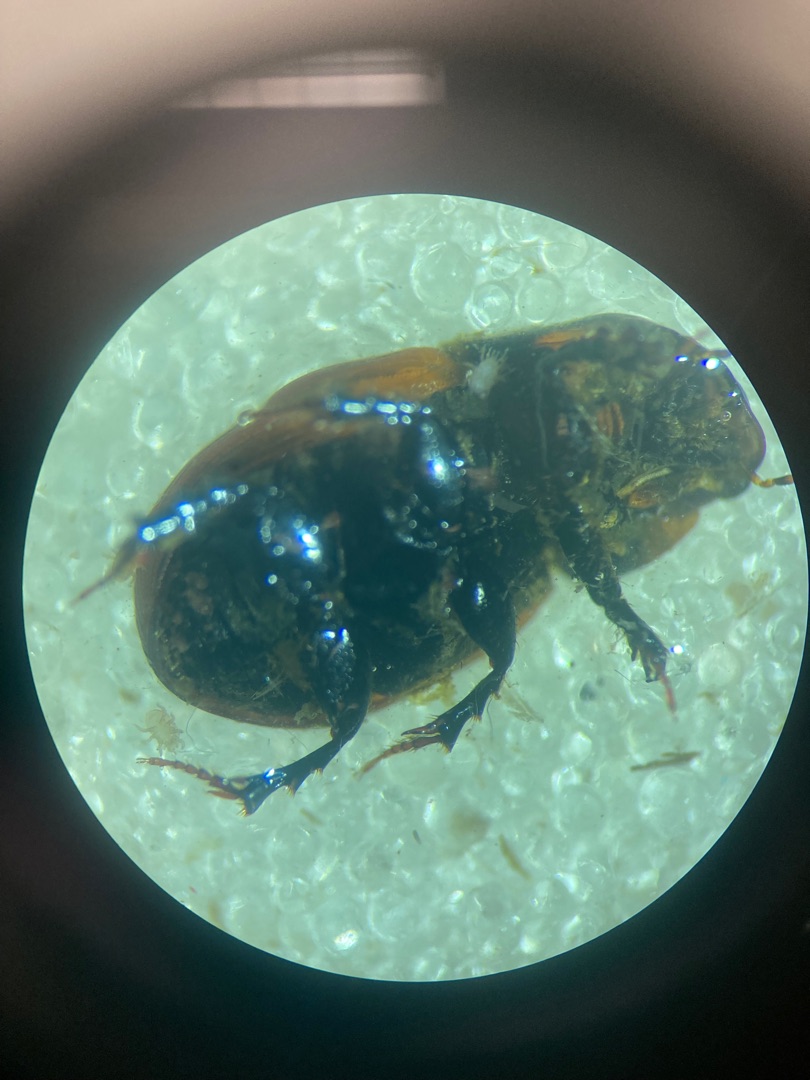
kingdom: Animalia
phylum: Arthropoda
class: Insecta
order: Coleoptera
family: Scarabaeidae
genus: Aphodius
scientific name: Aphodius pedellus
